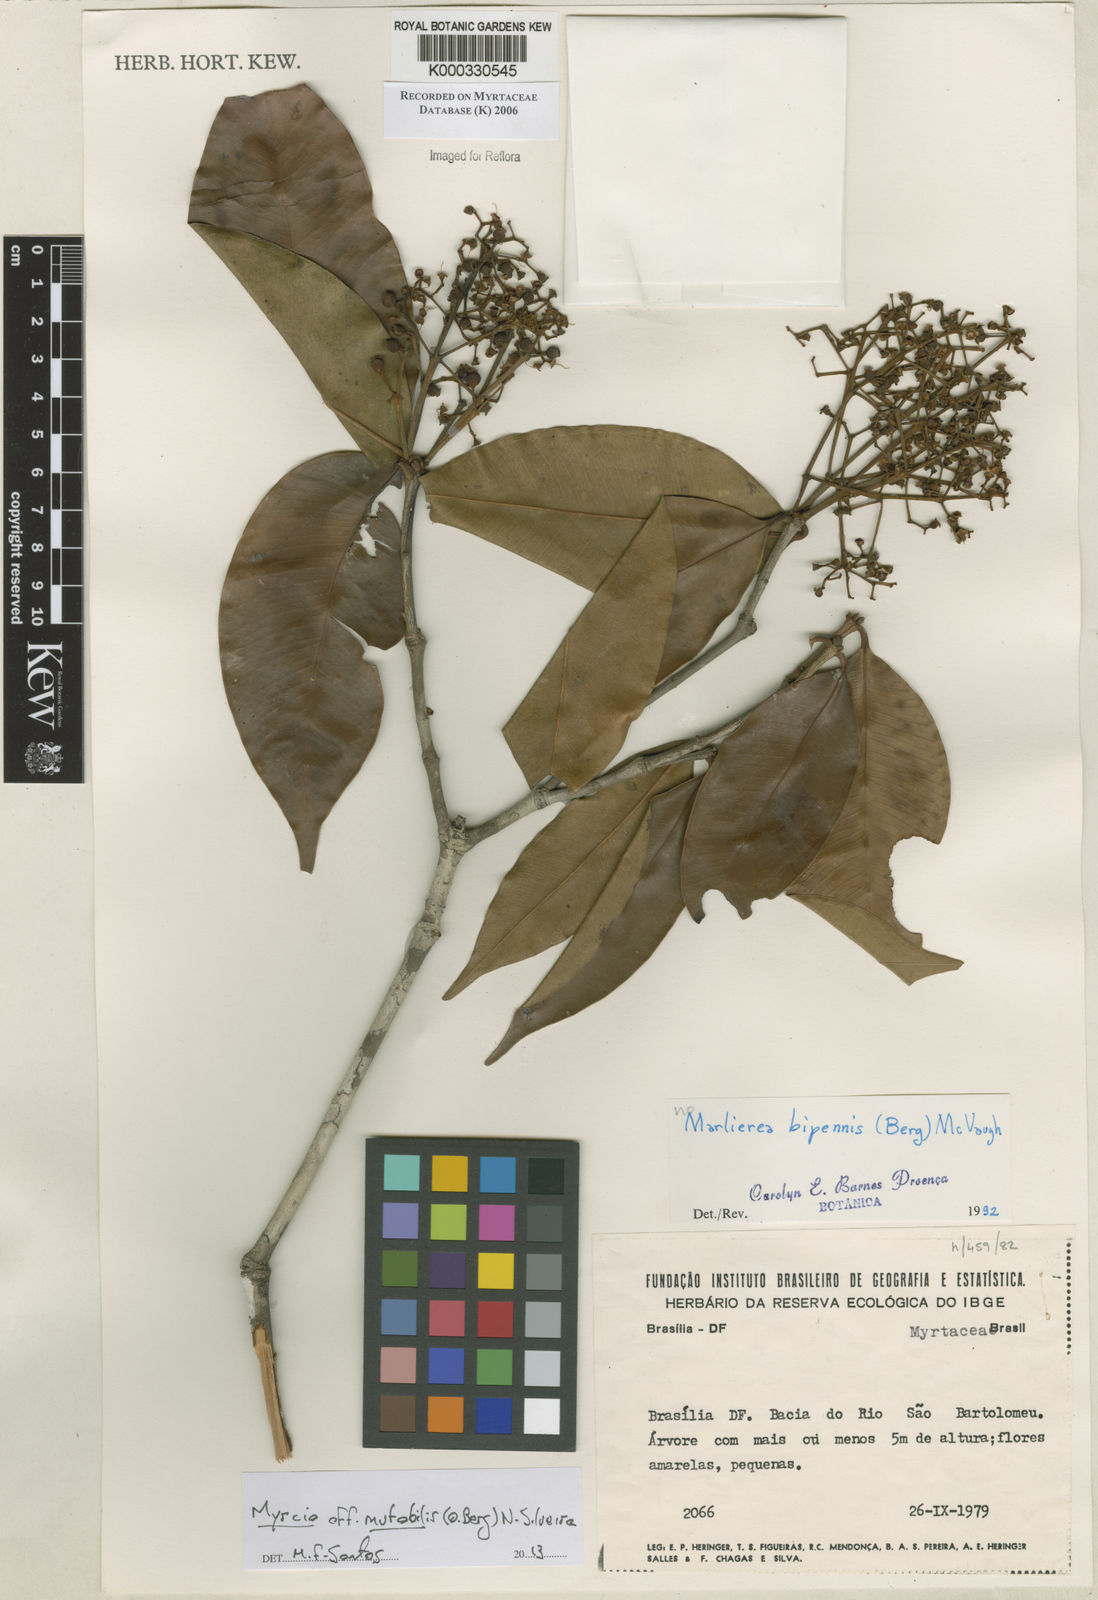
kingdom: Plantae
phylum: Tracheophyta
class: Magnoliopsida
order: Myrtales
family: Myrtaceae
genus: Myrcia
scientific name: Myrcia bipennis
